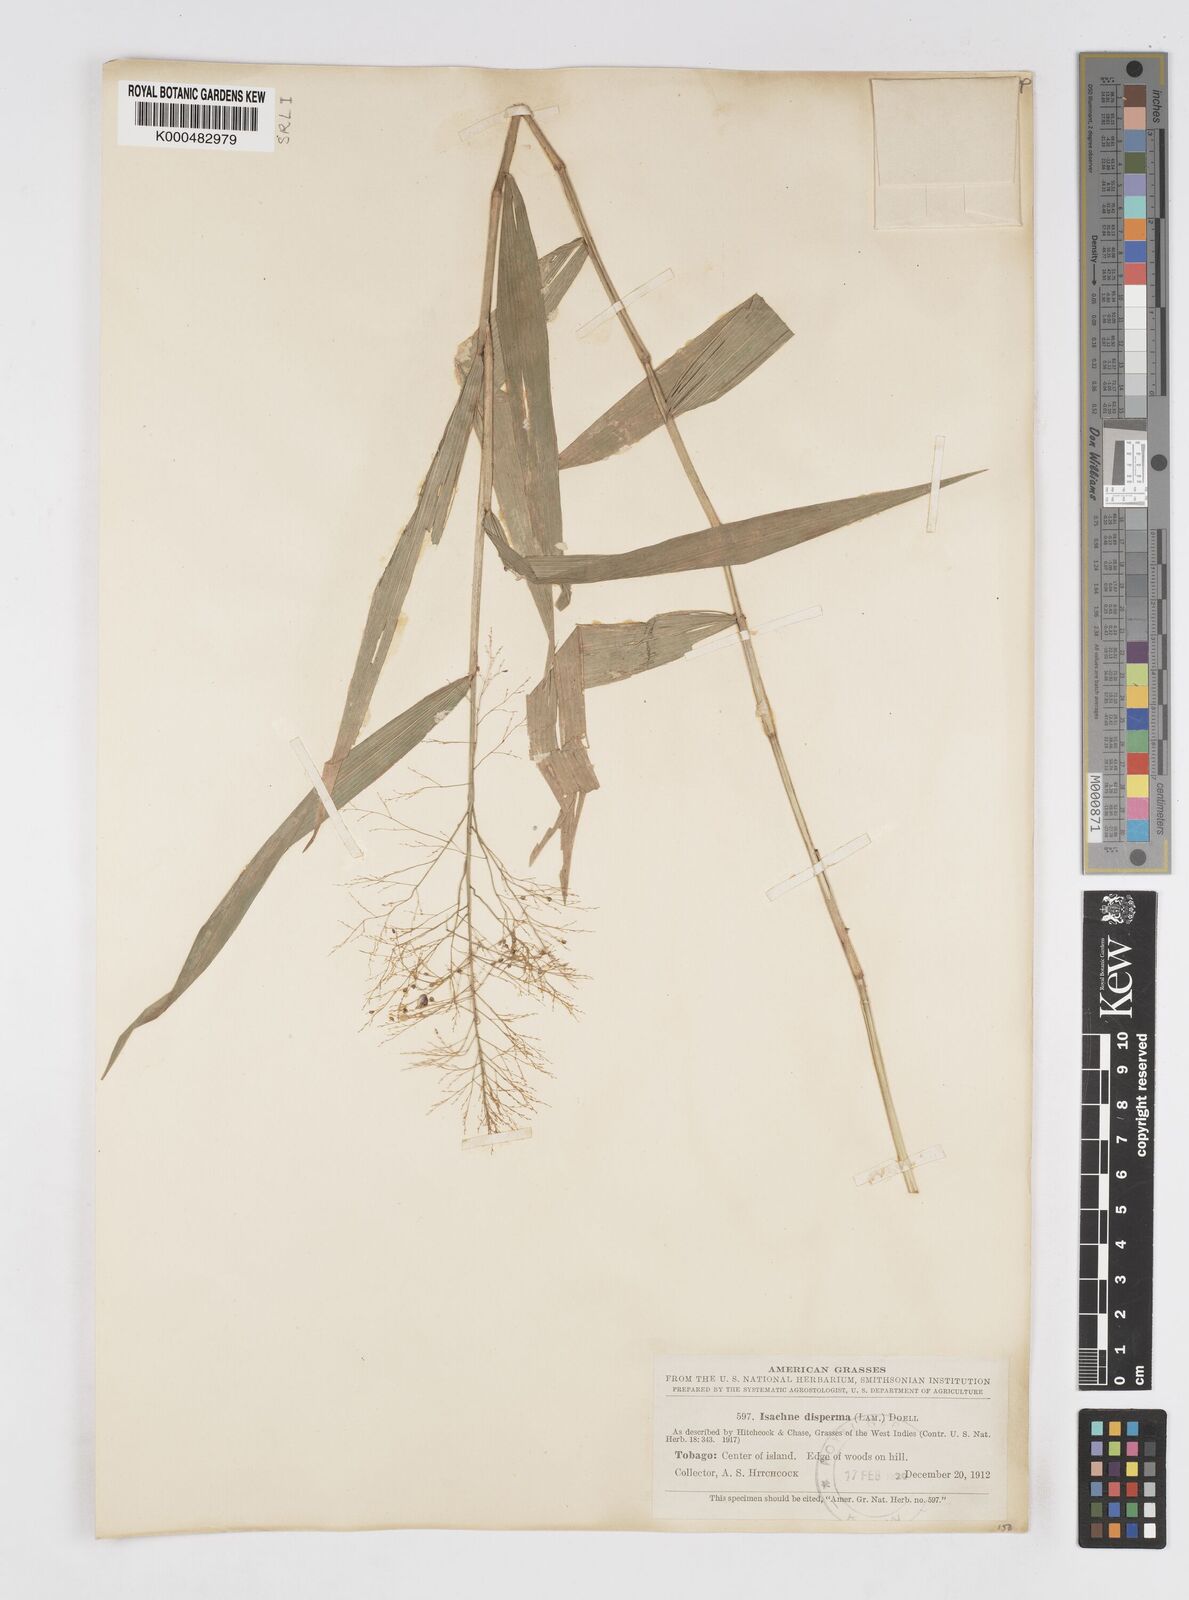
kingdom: Plantae
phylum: Tracheophyta
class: Liliopsida
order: Poales
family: Poaceae
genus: Isachne
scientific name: Isachne
